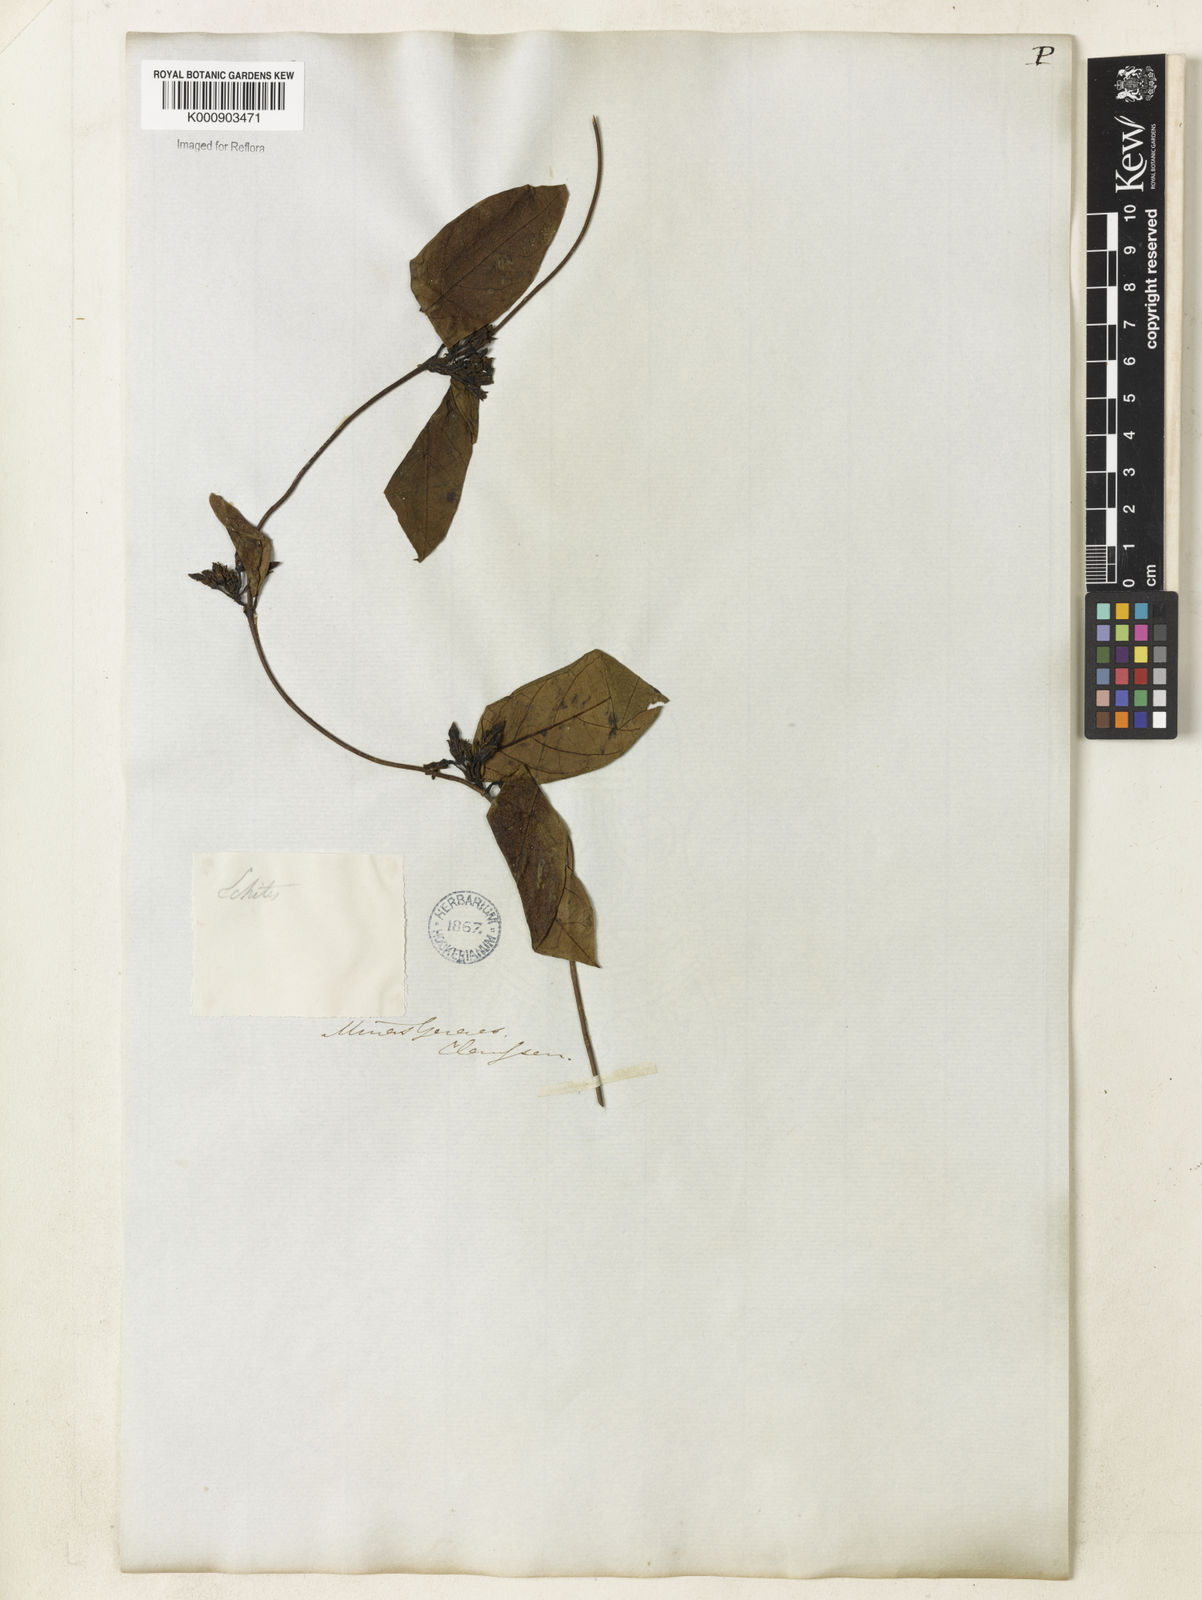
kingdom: Plantae
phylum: Tracheophyta
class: Magnoliopsida
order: Gentianales
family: Apocynaceae
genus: Prestonia
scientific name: Prestonia coalita
